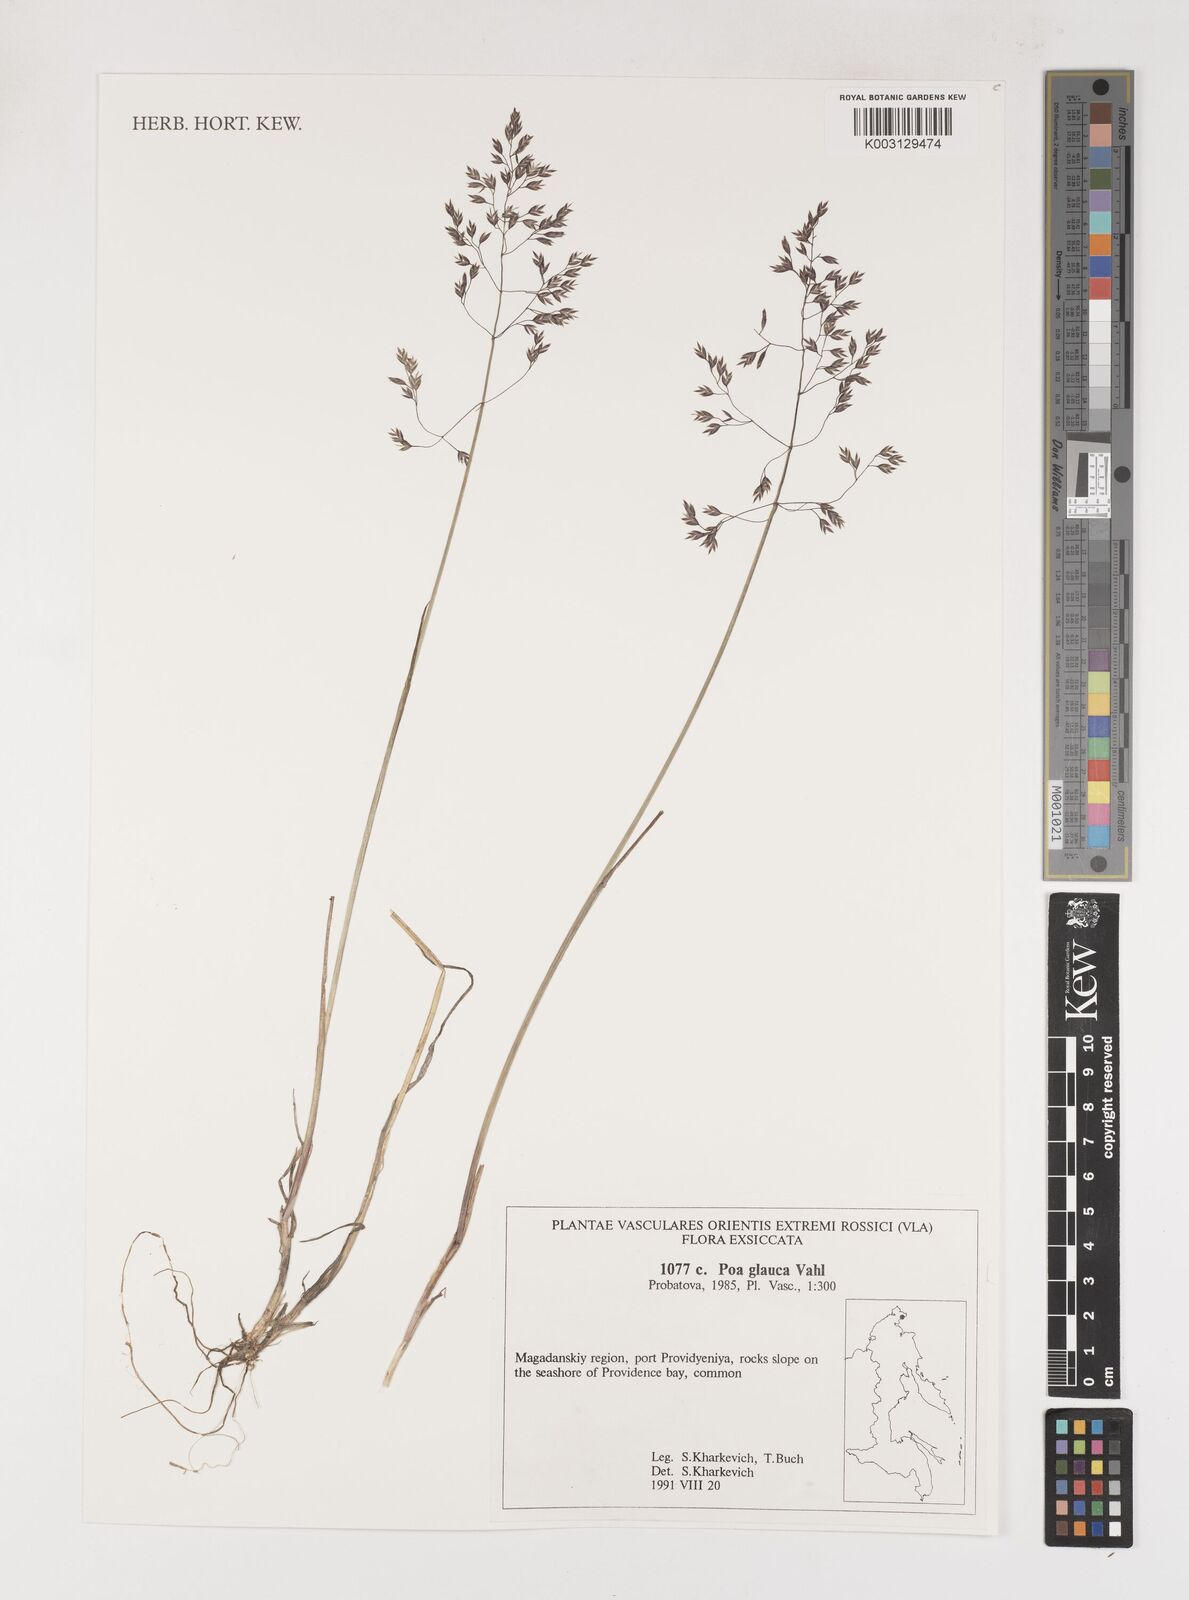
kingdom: Plantae
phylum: Tracheophyta
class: Liliopsida
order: Poales
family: Poaceae
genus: Poa
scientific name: Poa glauca
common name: Glaucous bluegrass
